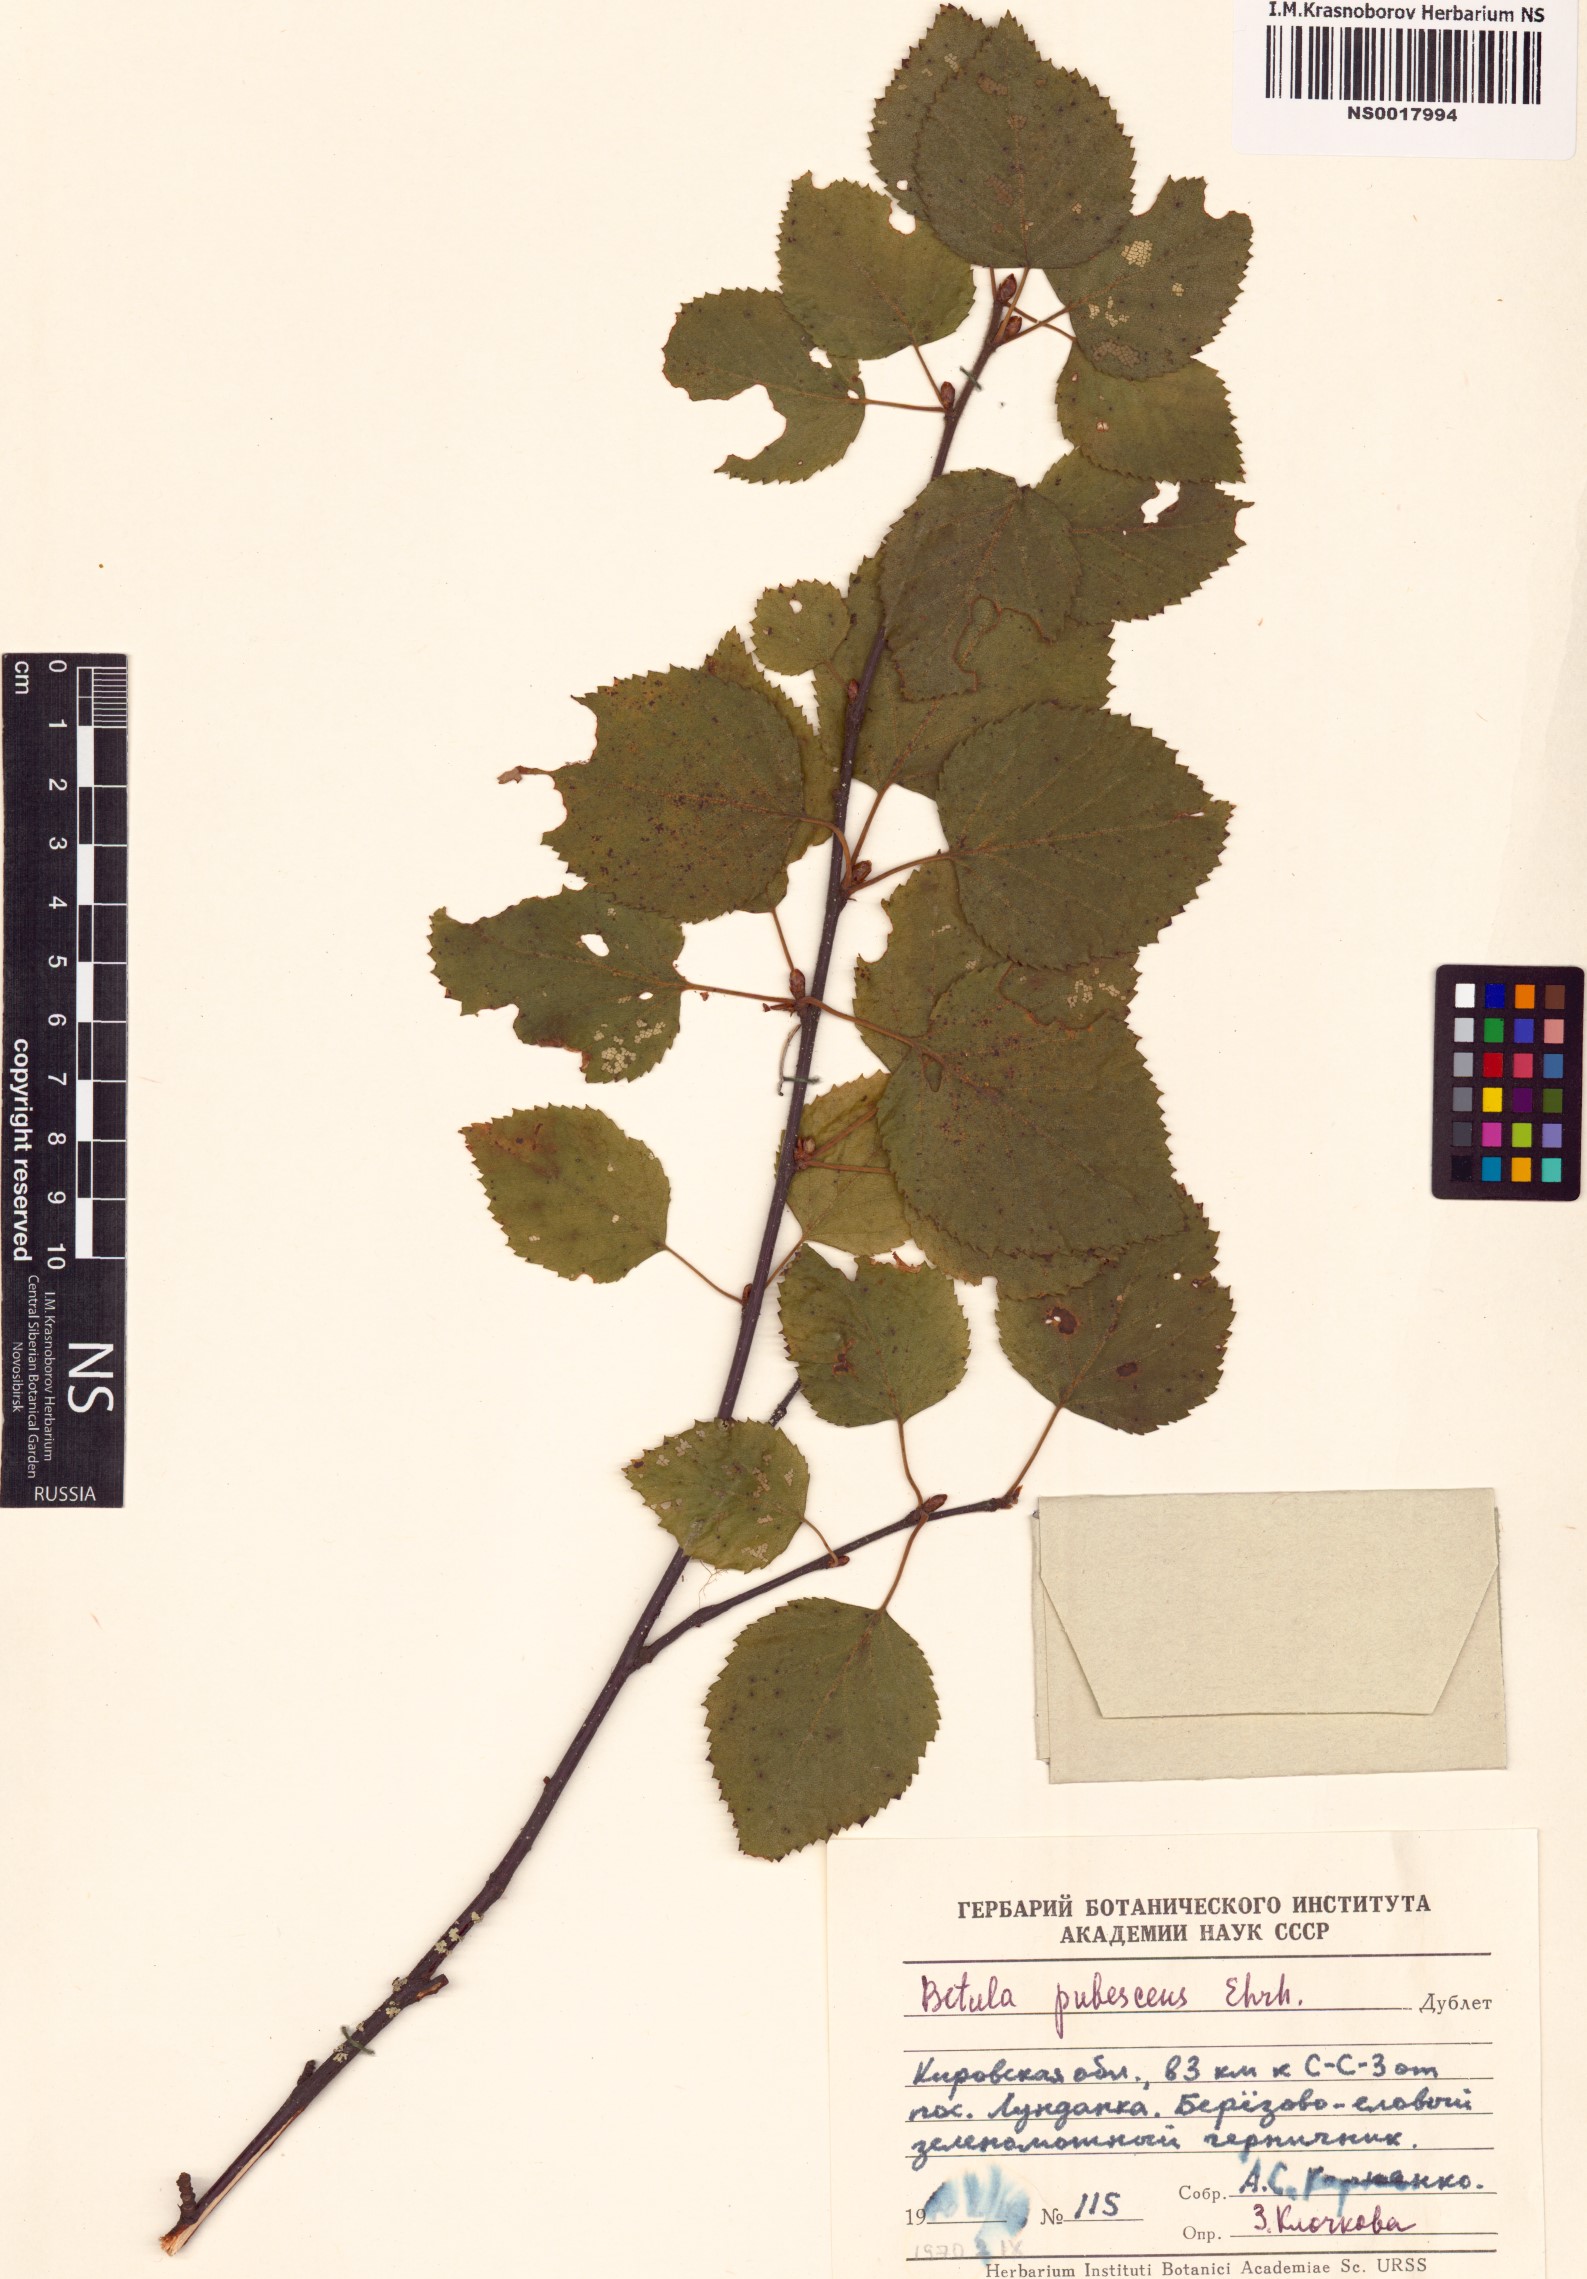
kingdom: Plantae
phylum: Tracheophyta
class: Magnoliopsida
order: Fagales
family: Betulaceae
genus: Betula
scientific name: Betula pubescens
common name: Downy birch
